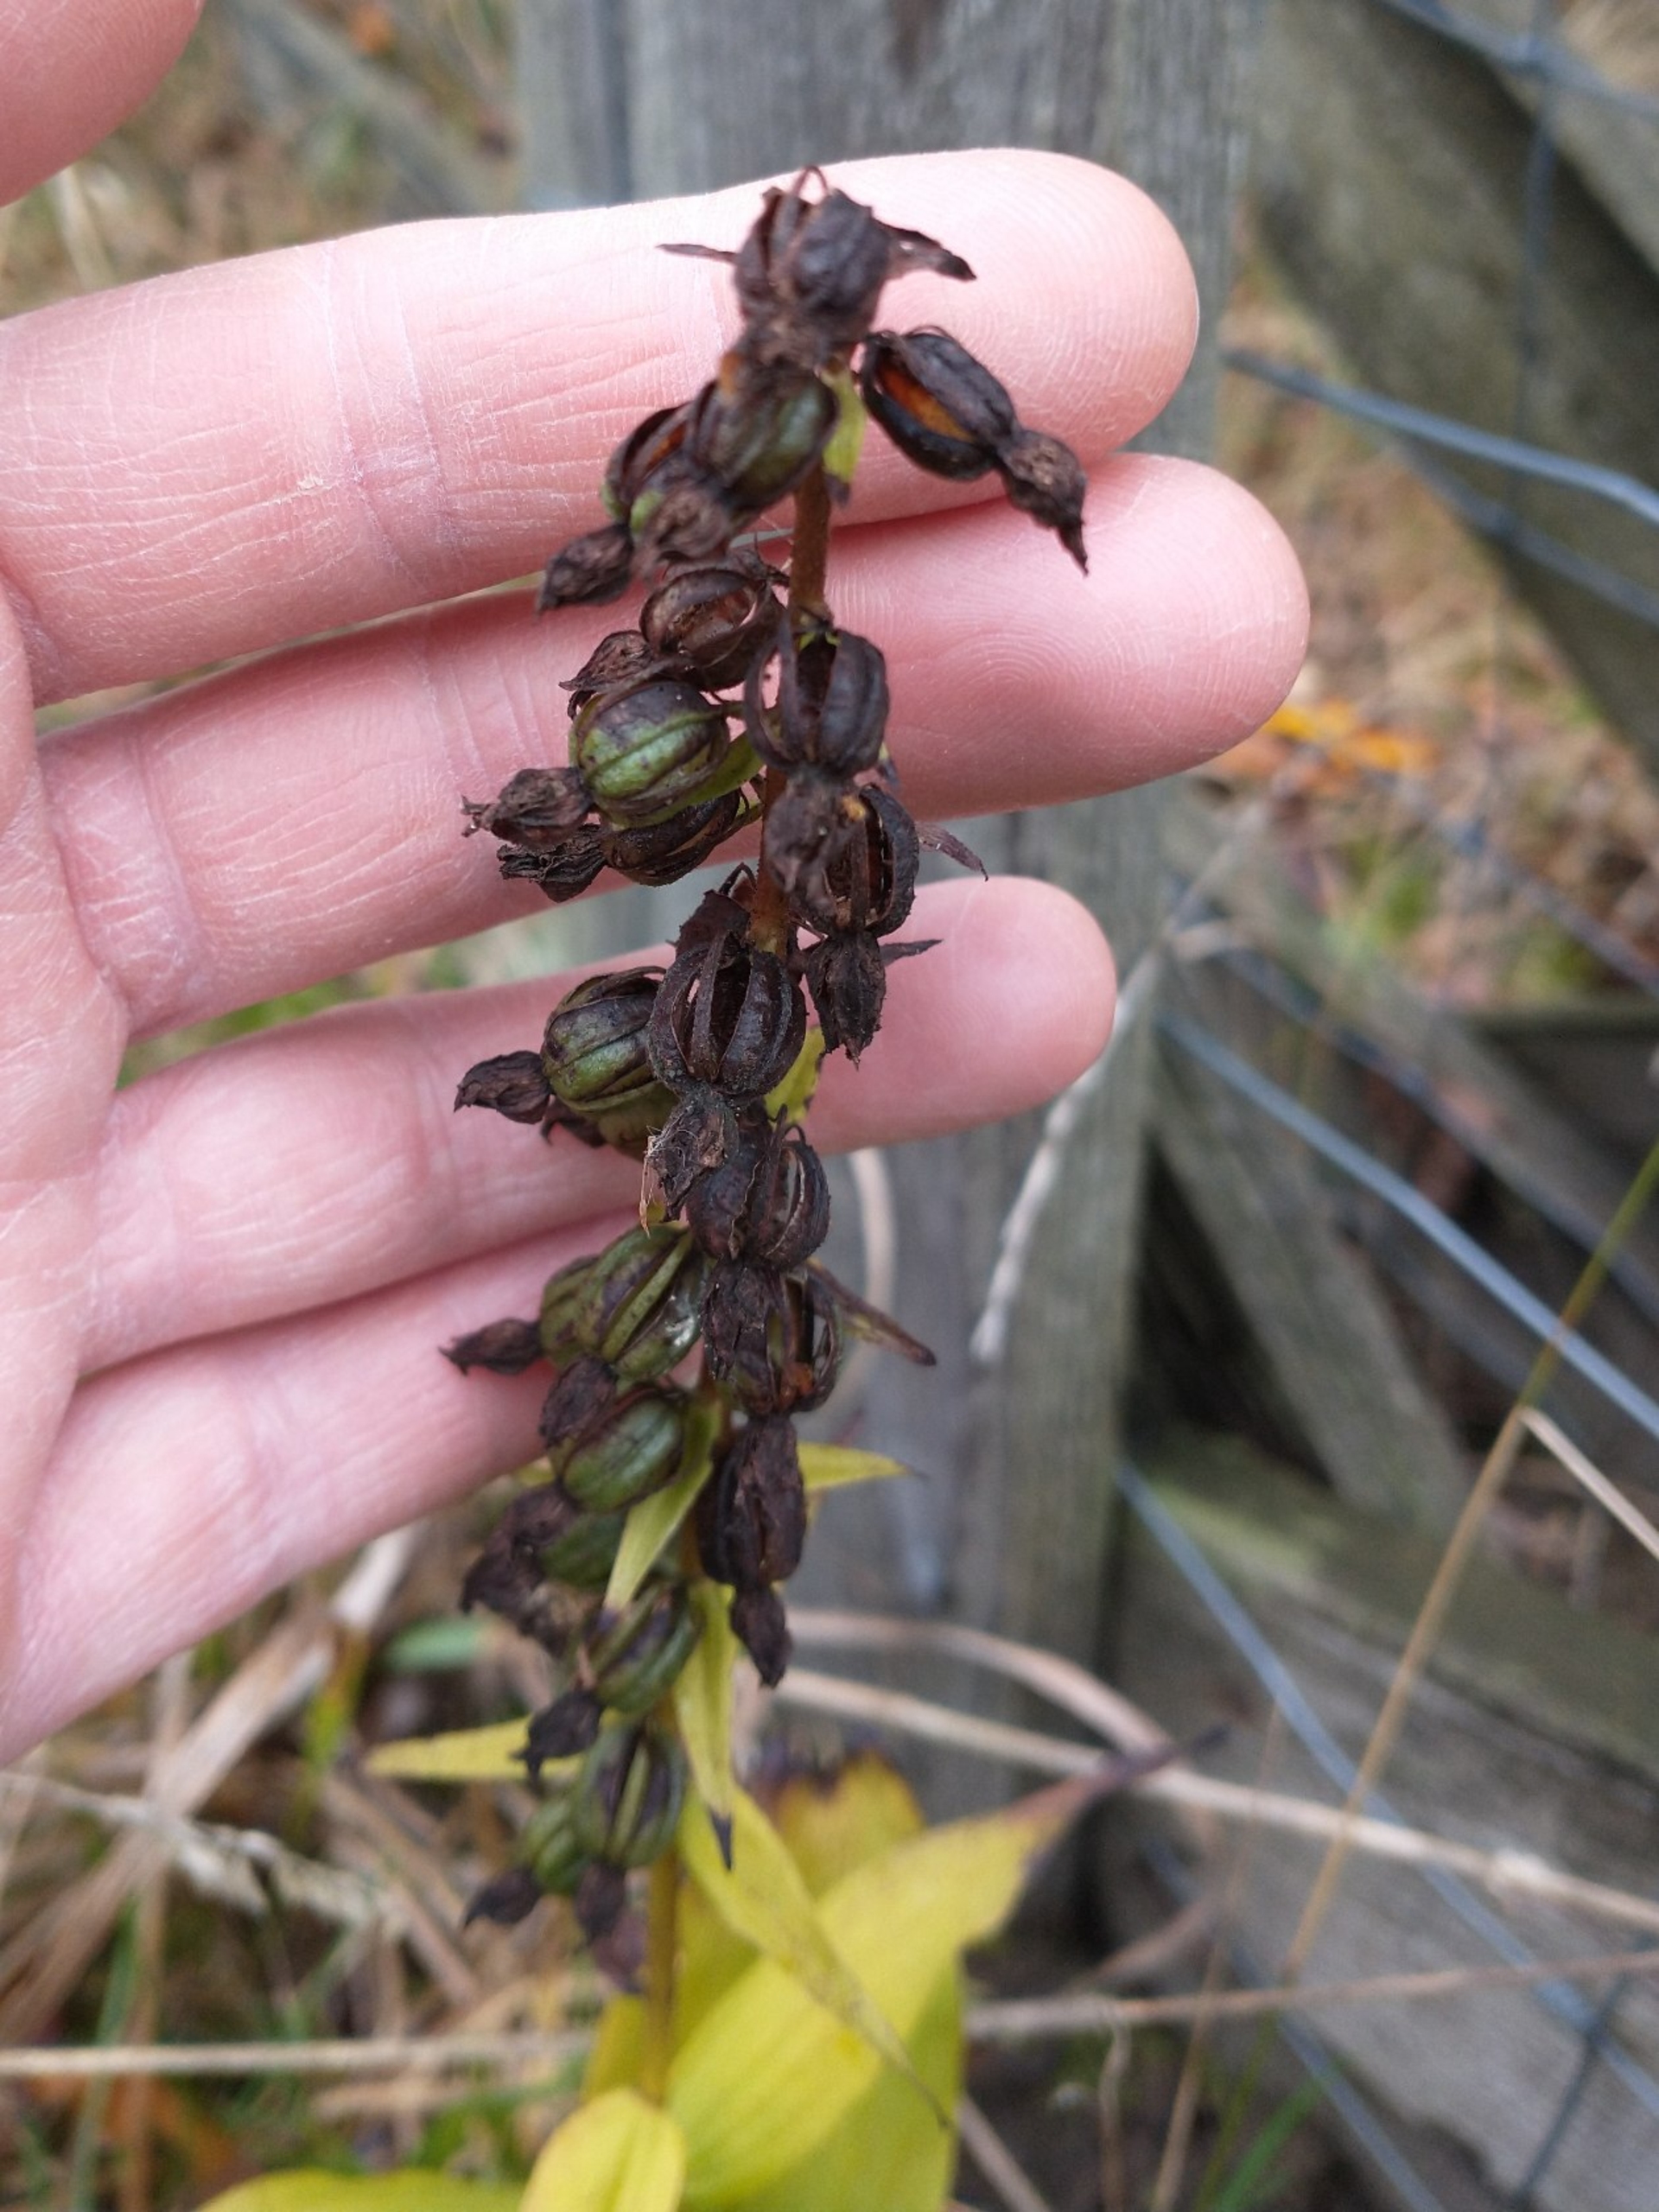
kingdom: Plantae
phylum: Tracheophyta
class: Liliopsida
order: Asparagales
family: Orchidaceae
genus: Epipactis
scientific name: Epipactis helleborine
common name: Skov-hullæbe
